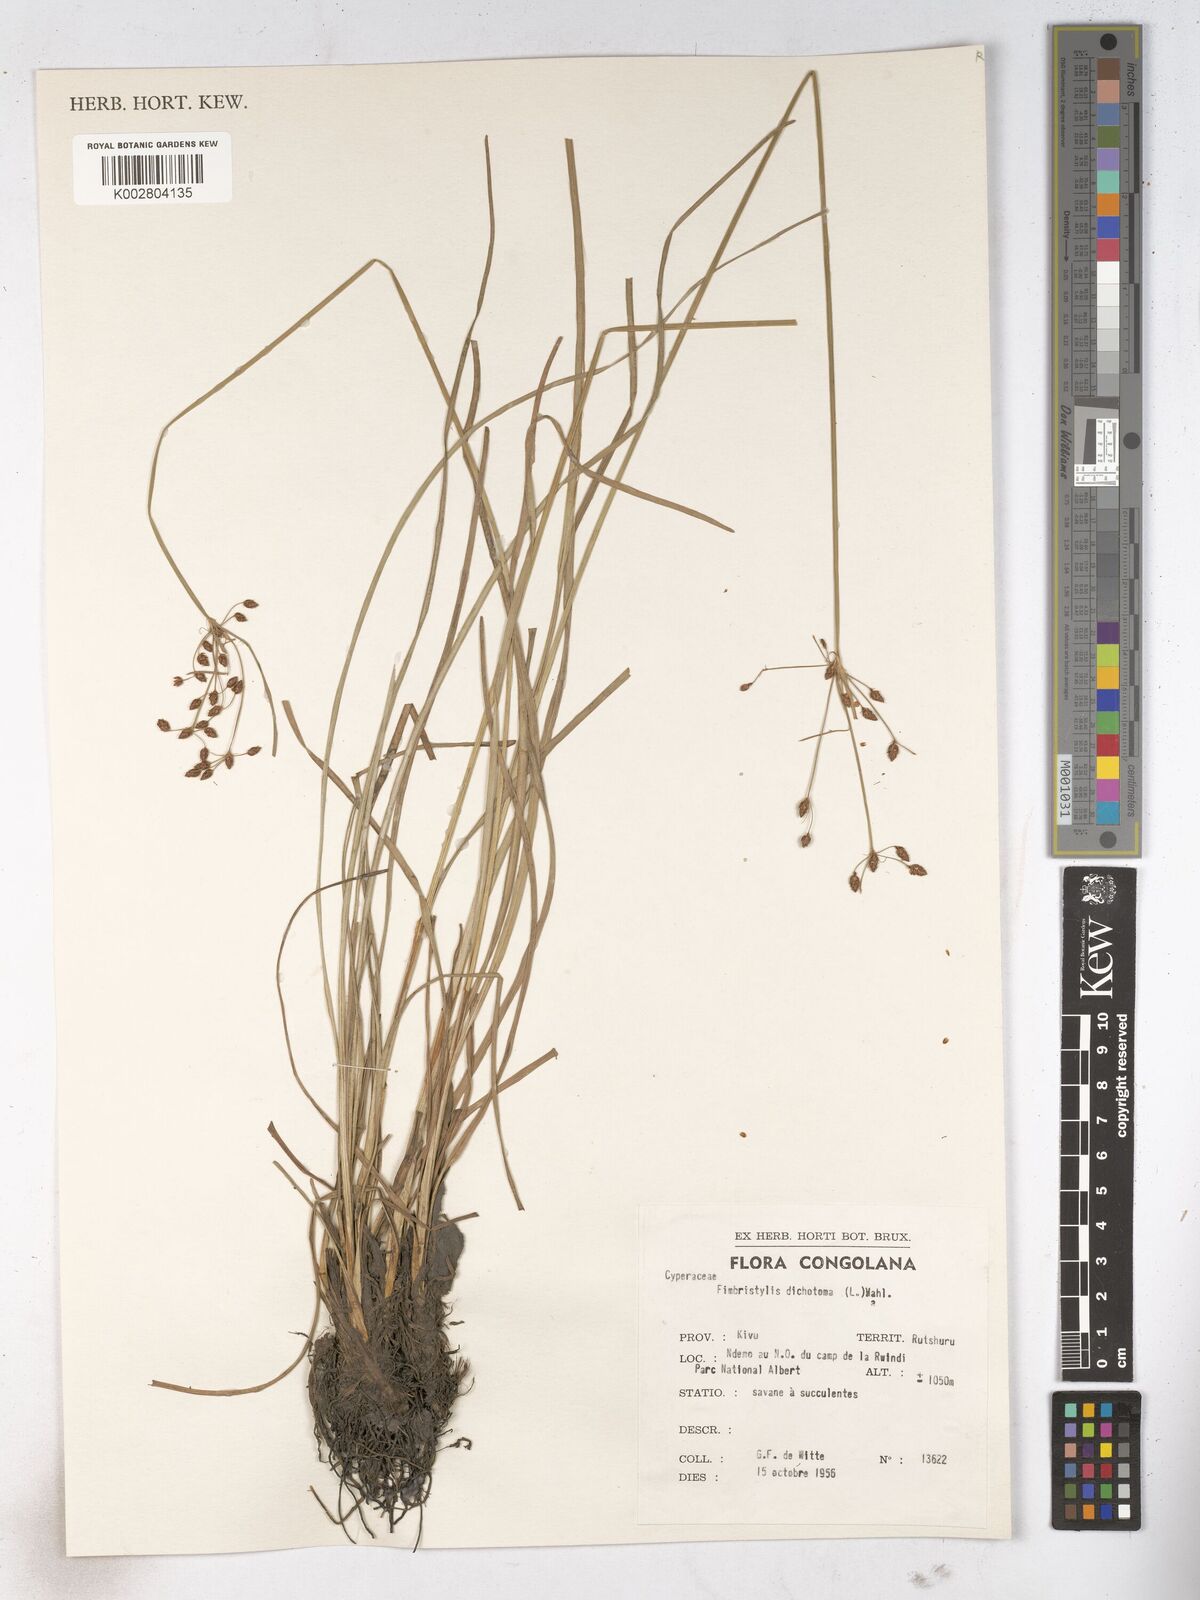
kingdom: Plantae
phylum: Tracheophyta
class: Liliopsida
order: Poales
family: Cyperaceae
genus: Fimbristylis
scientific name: Fimbristylis dichotoma
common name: Forked fimbry
